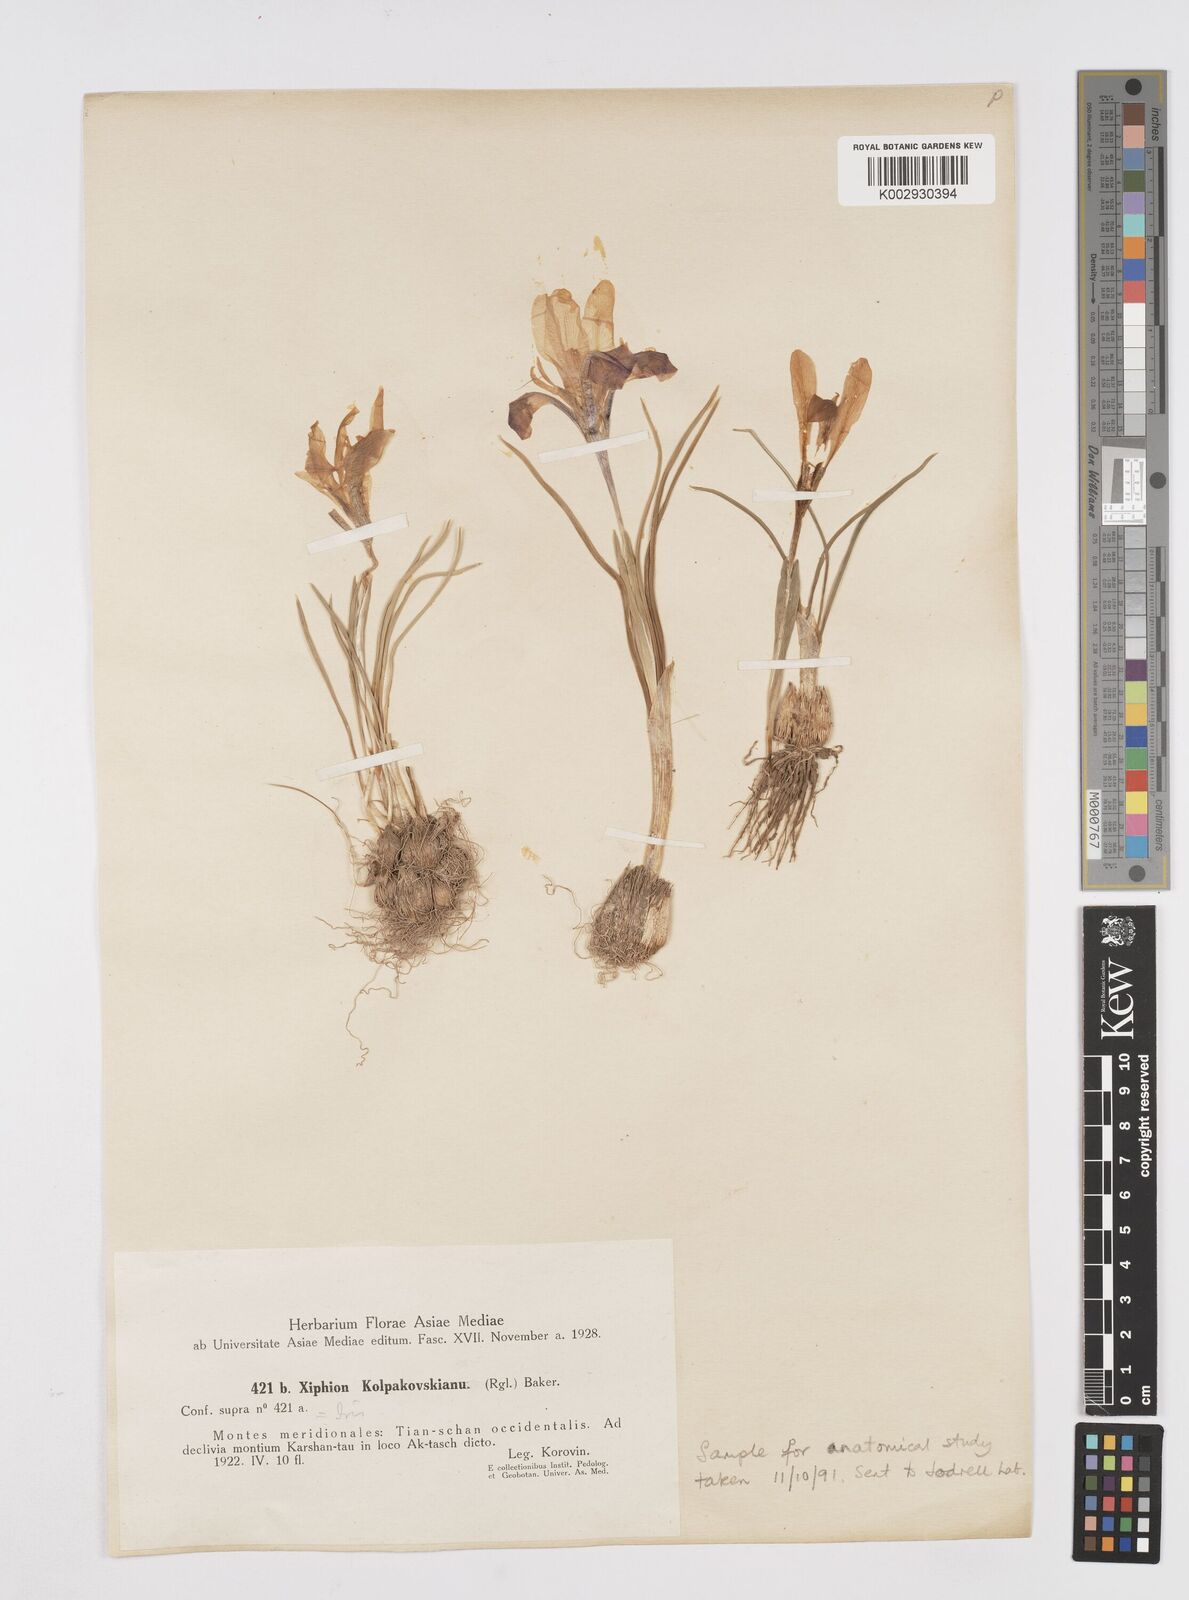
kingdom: Plantae
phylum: Tracheophyta
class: Liliopsida
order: Asparagales
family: Iridaceae
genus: Iris
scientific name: Iris kolpakowskiana
